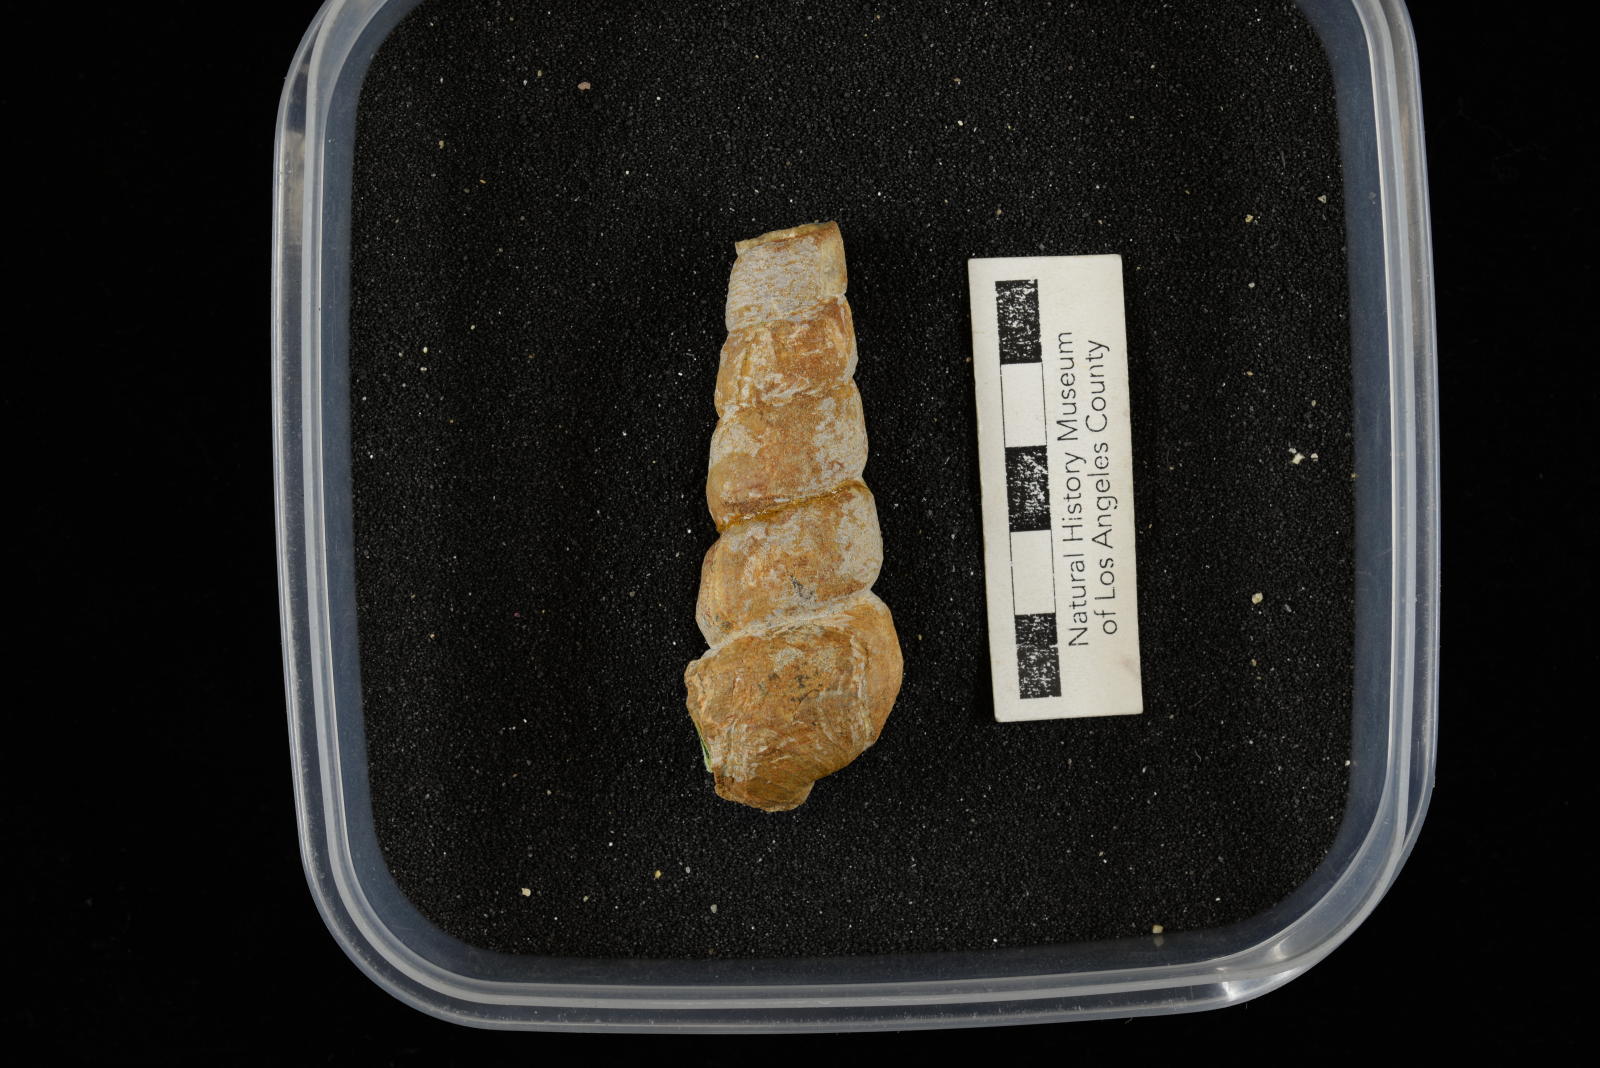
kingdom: Animalia
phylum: Mollusca
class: Gastropoda
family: Turritellidae
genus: Turritella
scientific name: Turritella chaneyi
